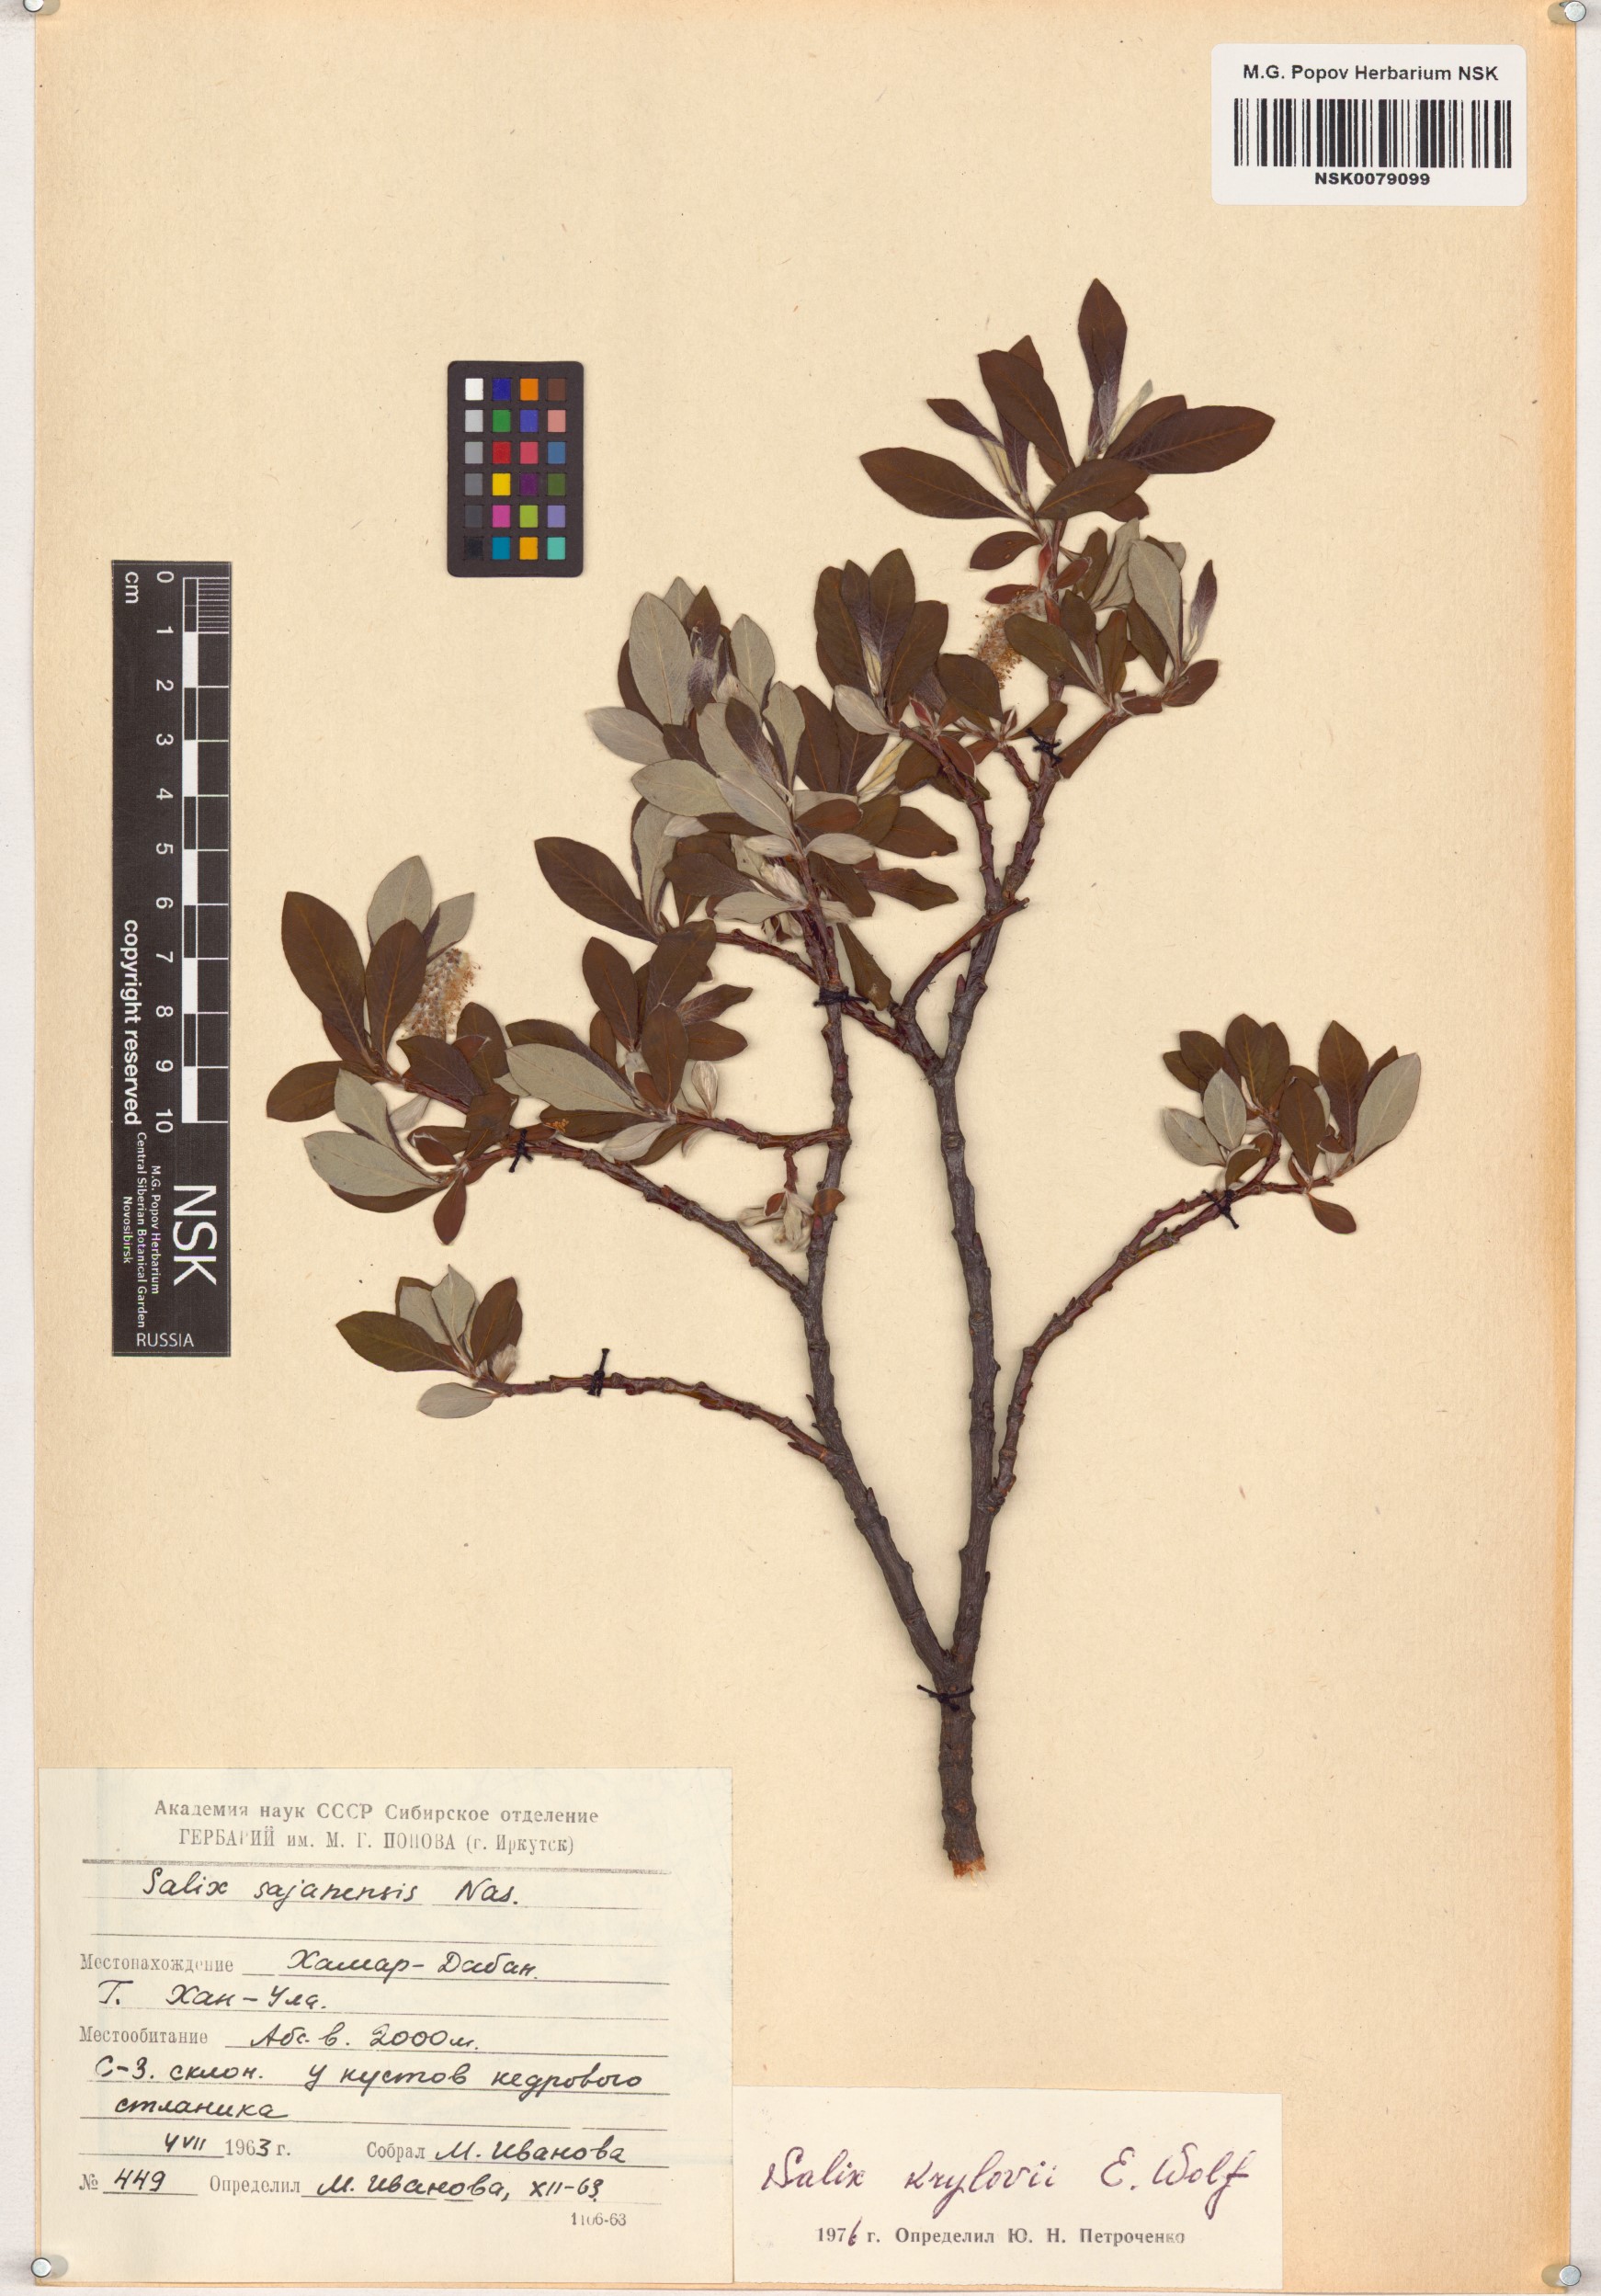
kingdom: Plantae
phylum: Tracheophyta
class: Magnoliopsida
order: Malpighiales
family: Salicaceae
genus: Salix
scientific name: Salix krylovii
